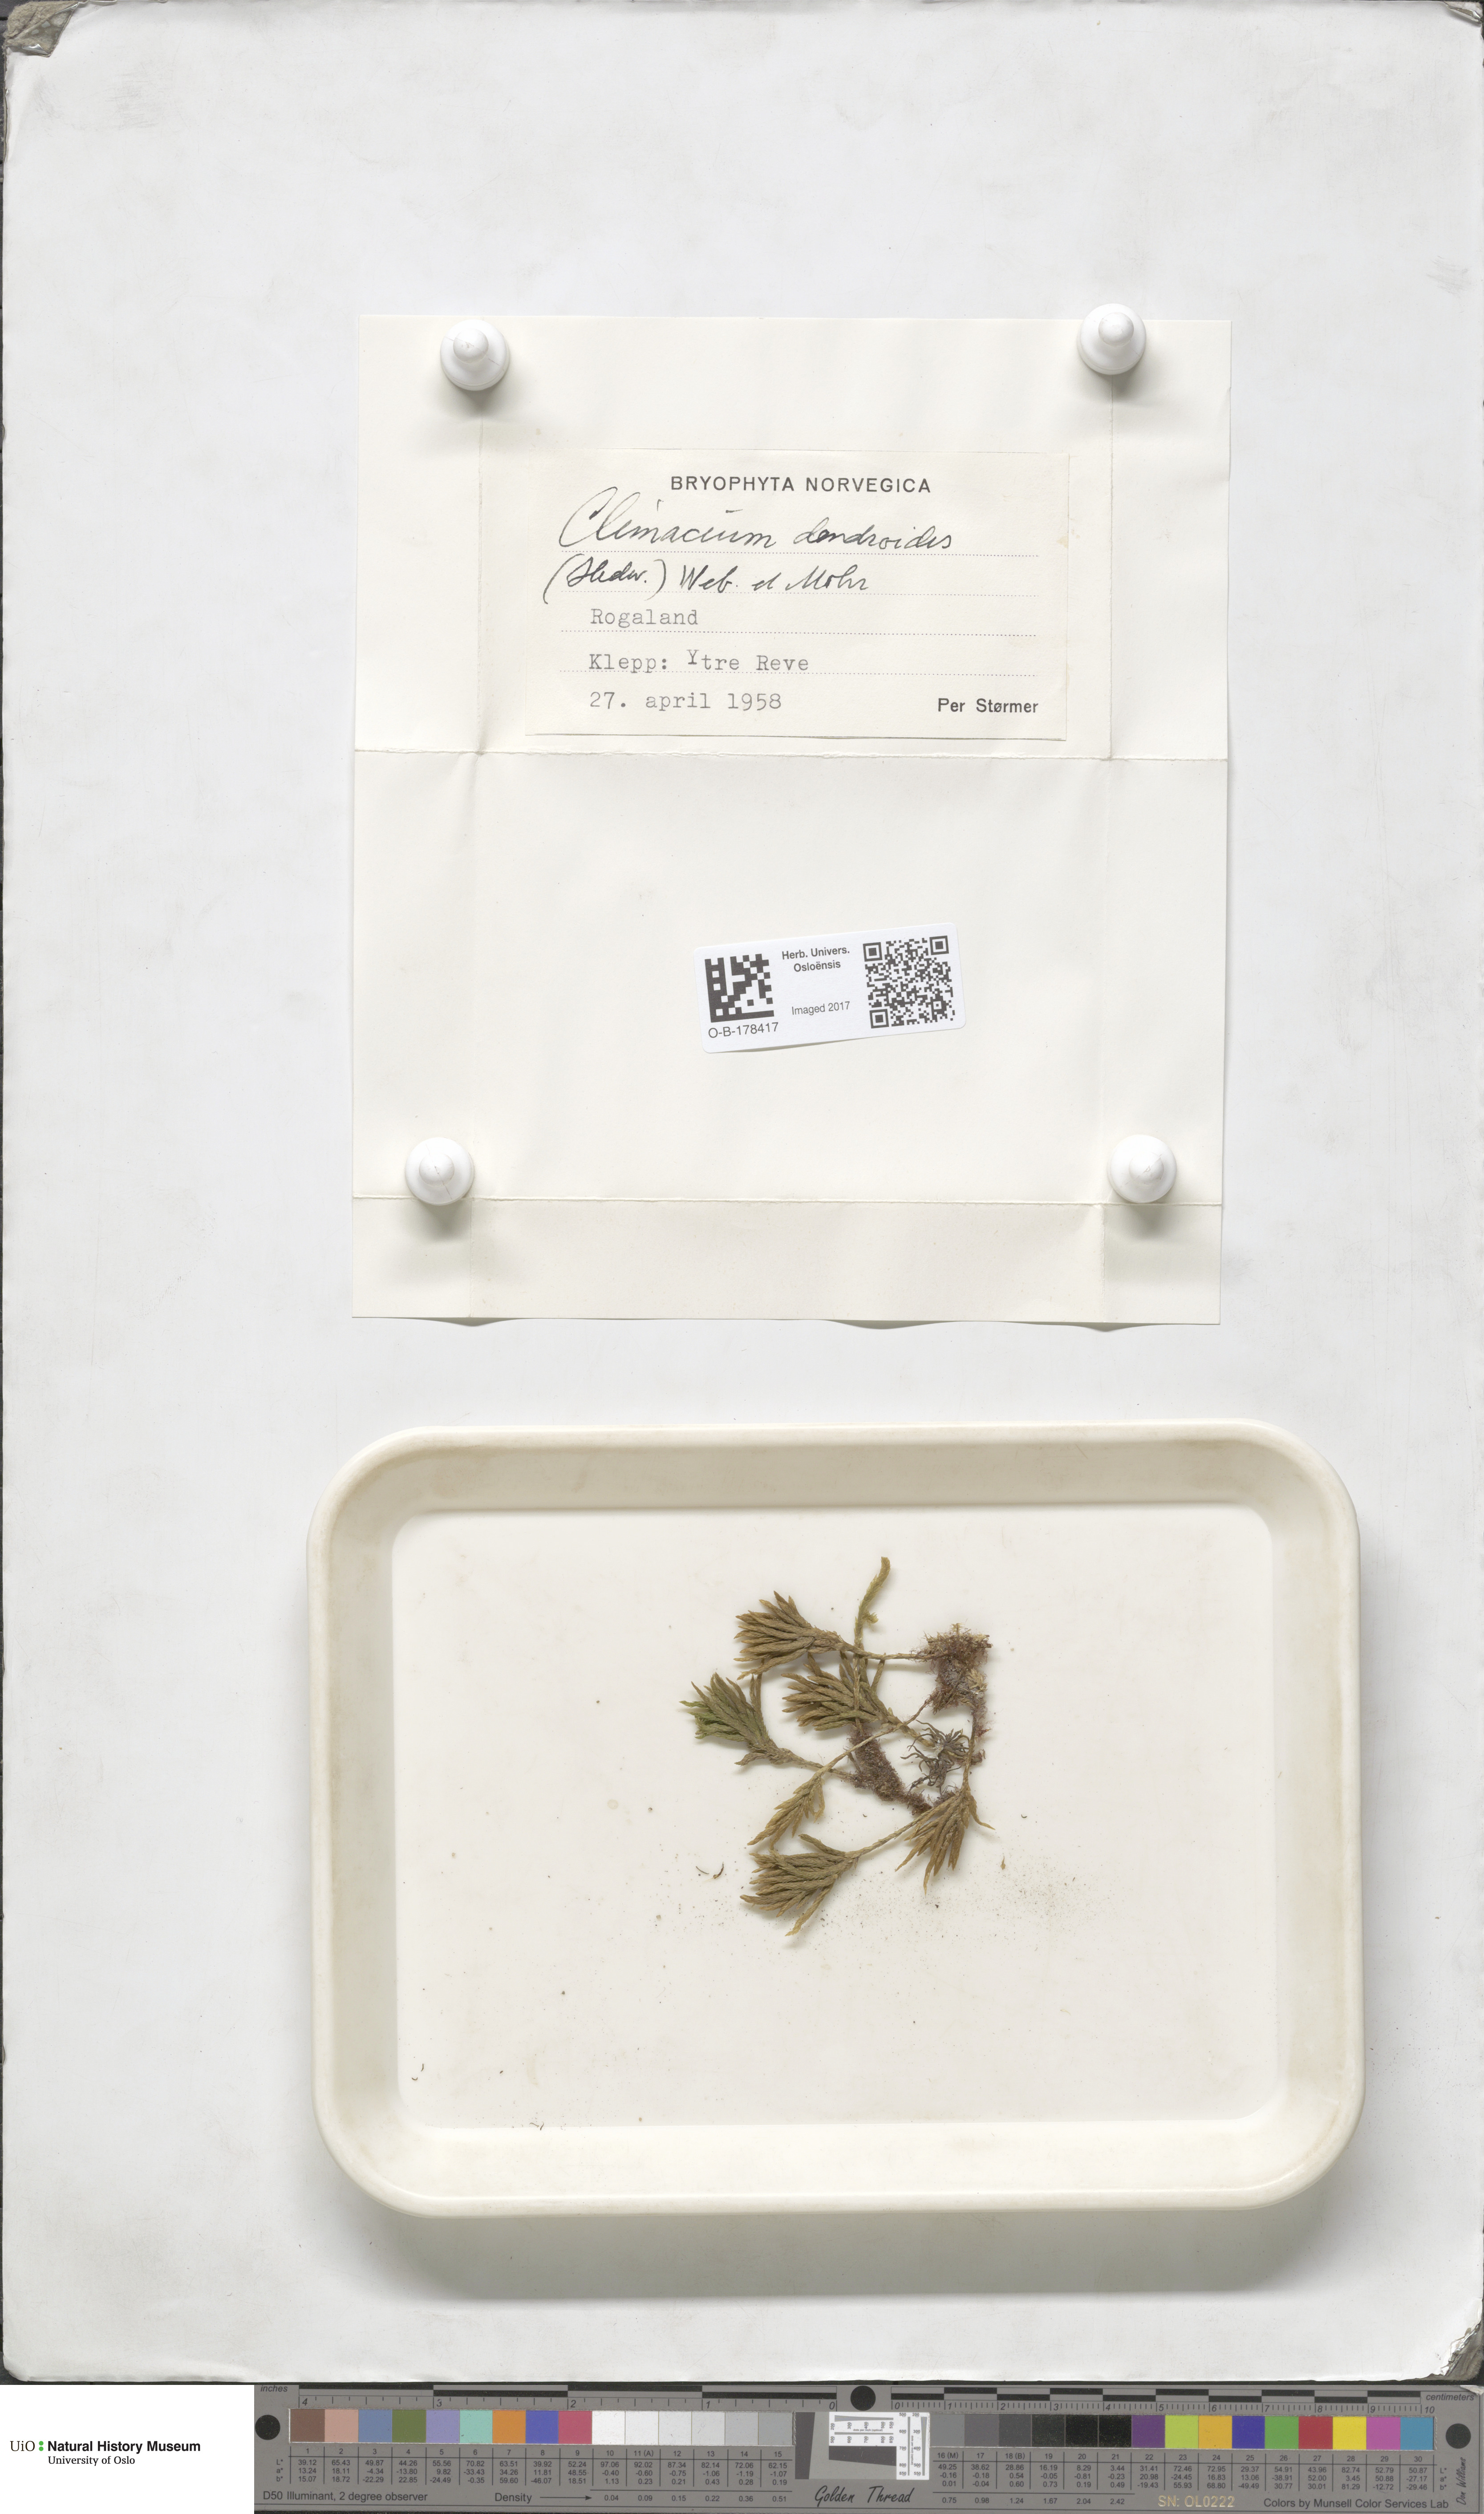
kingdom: Plantae
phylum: Bryophyta
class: Bryopsida
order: Hypnales
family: Climaciaceae
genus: Climacium
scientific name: Climacium dendroides
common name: Northern tree moss
